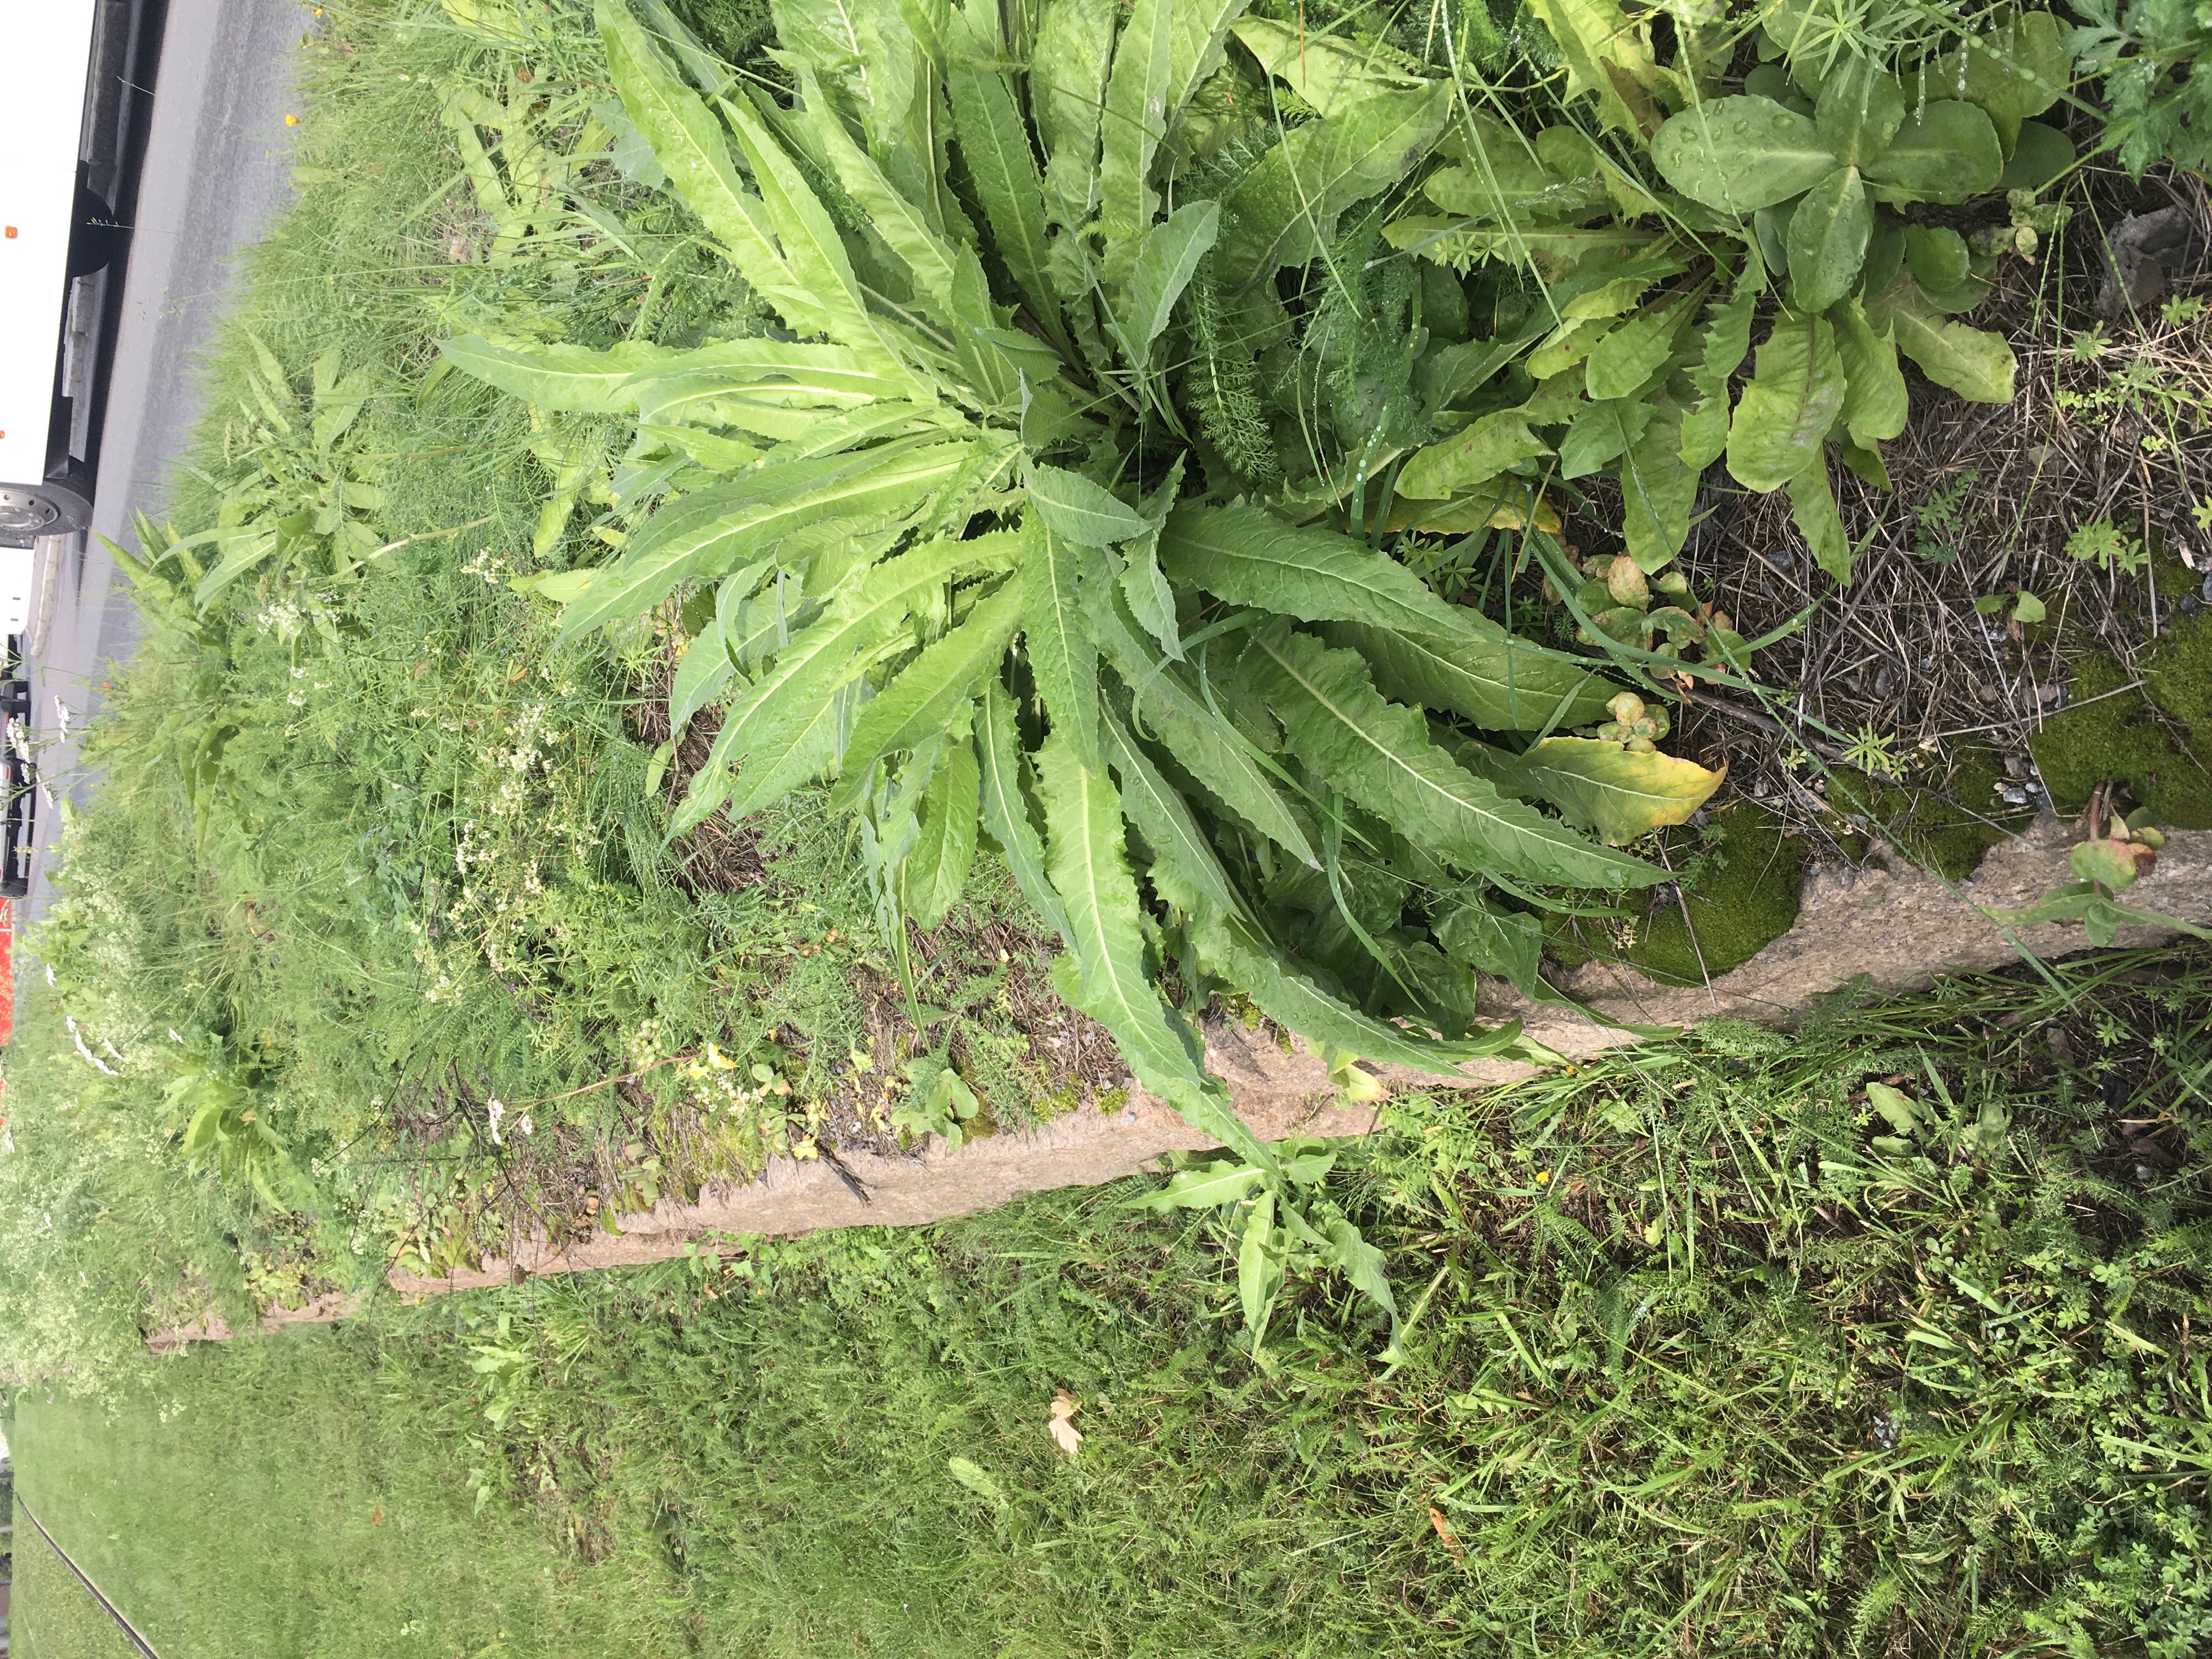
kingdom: Plantae
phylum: Tracheophyta
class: Magnoliopsida
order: Brassicales
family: Brassicaceae
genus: Bunias
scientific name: Bunias orientalis
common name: russekål
